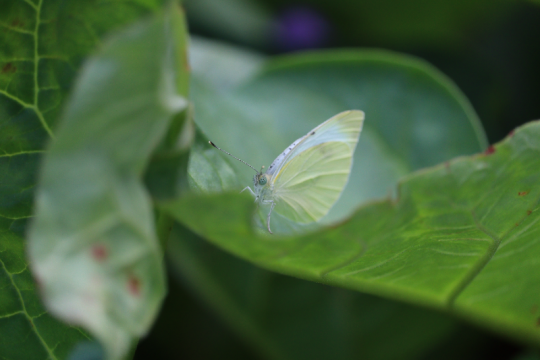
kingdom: Animalia
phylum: Arthropoda
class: Insecta
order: Lepidoptera
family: Pieridae
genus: Pieris
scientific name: Pieris rapae
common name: Cabbage White
